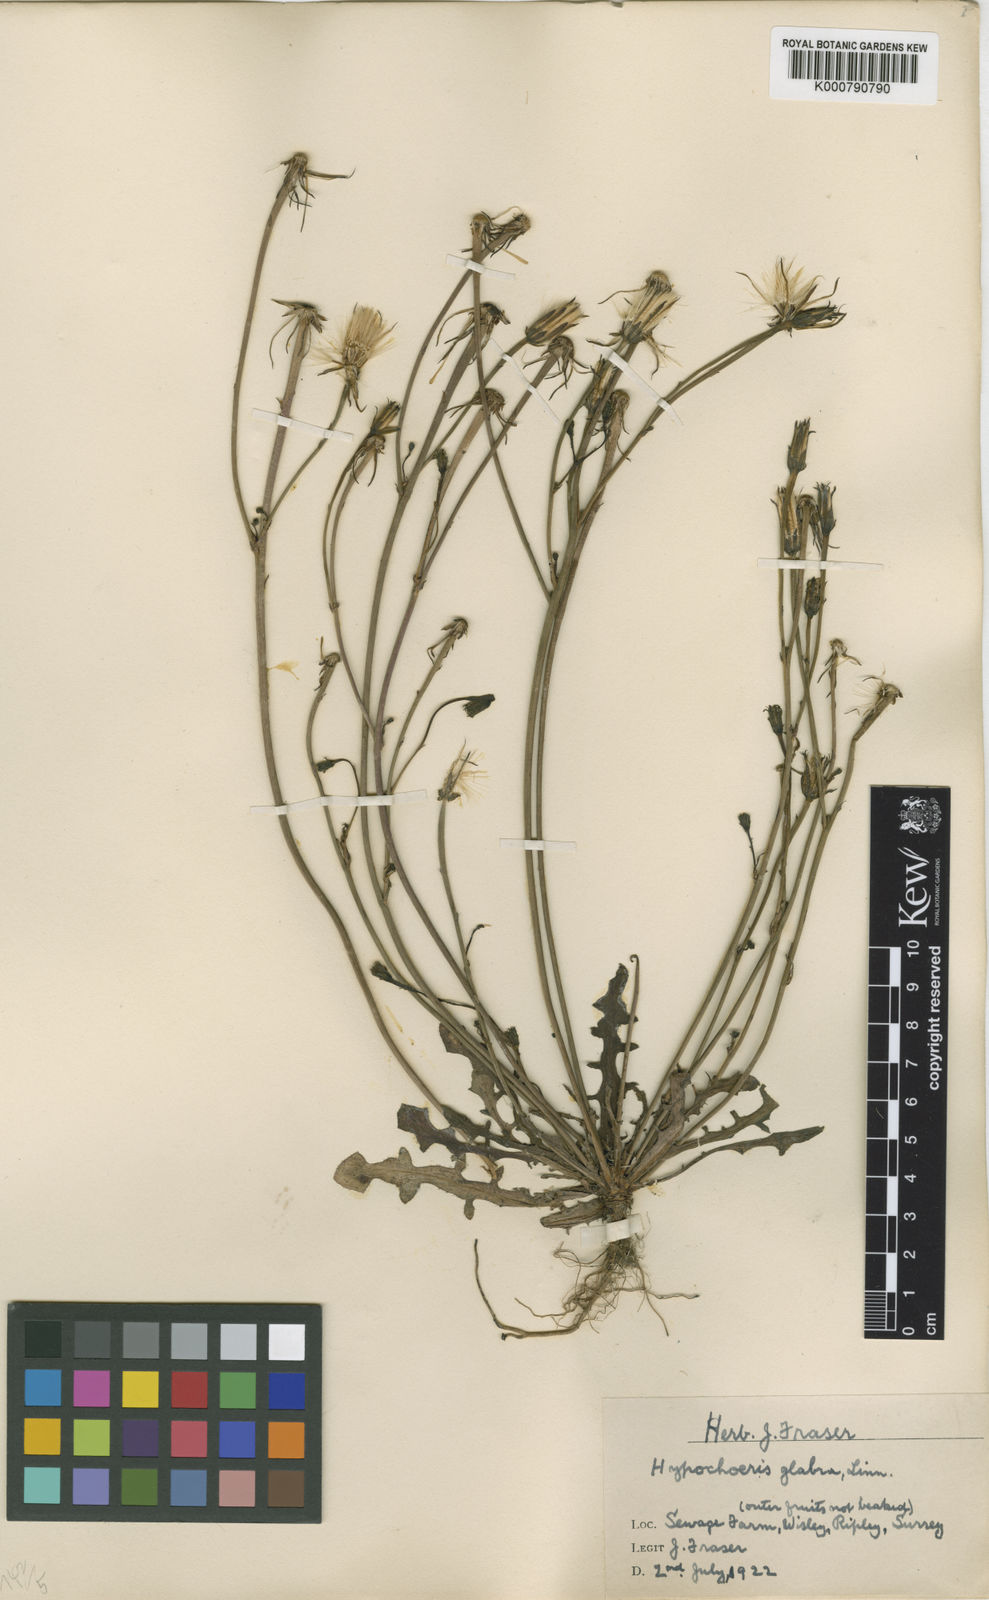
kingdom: Plantae
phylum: Tracheophyta
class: Magnoliopsida
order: Asterales
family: Asteraceae
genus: Hypochaeris
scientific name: Hypochaeris glabra
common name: Smooth catsear
